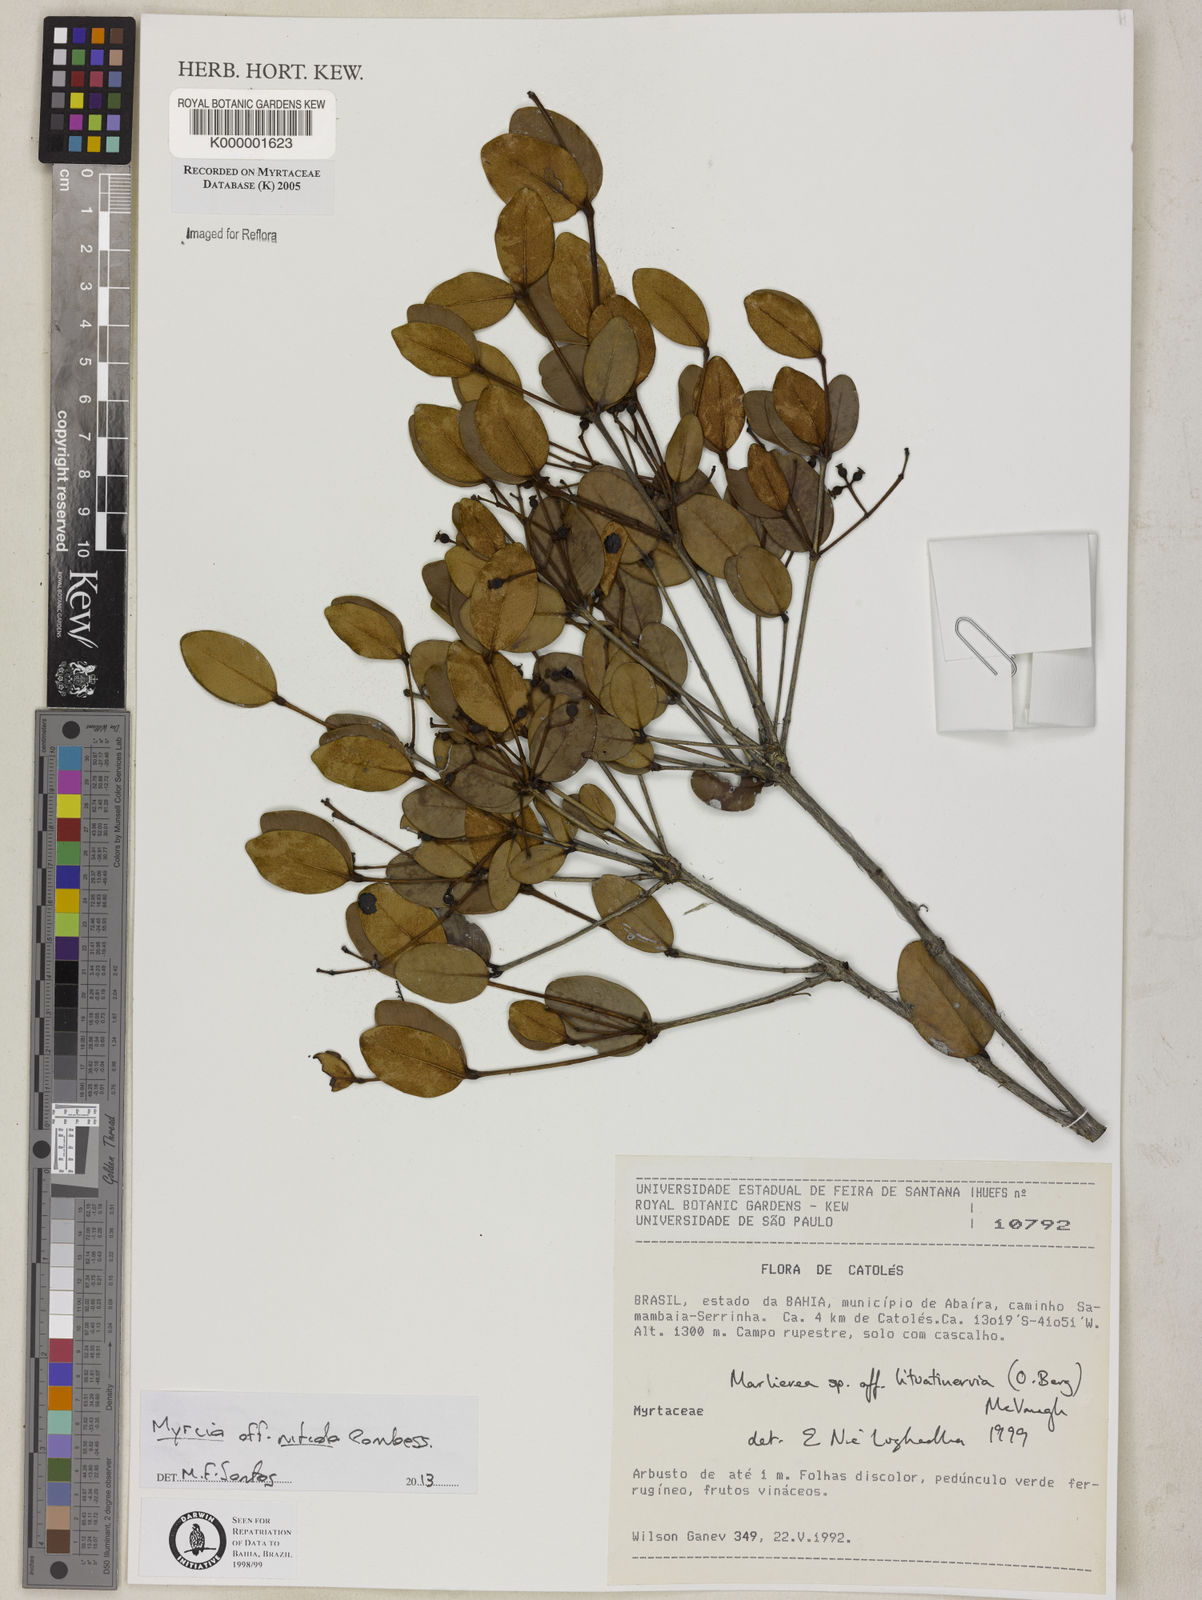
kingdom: Plantae
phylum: Tracheophyta
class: Magnoliopsida
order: Myrtales
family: Myrtaceae
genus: Myrcia
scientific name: Myrcia lituatinervia
